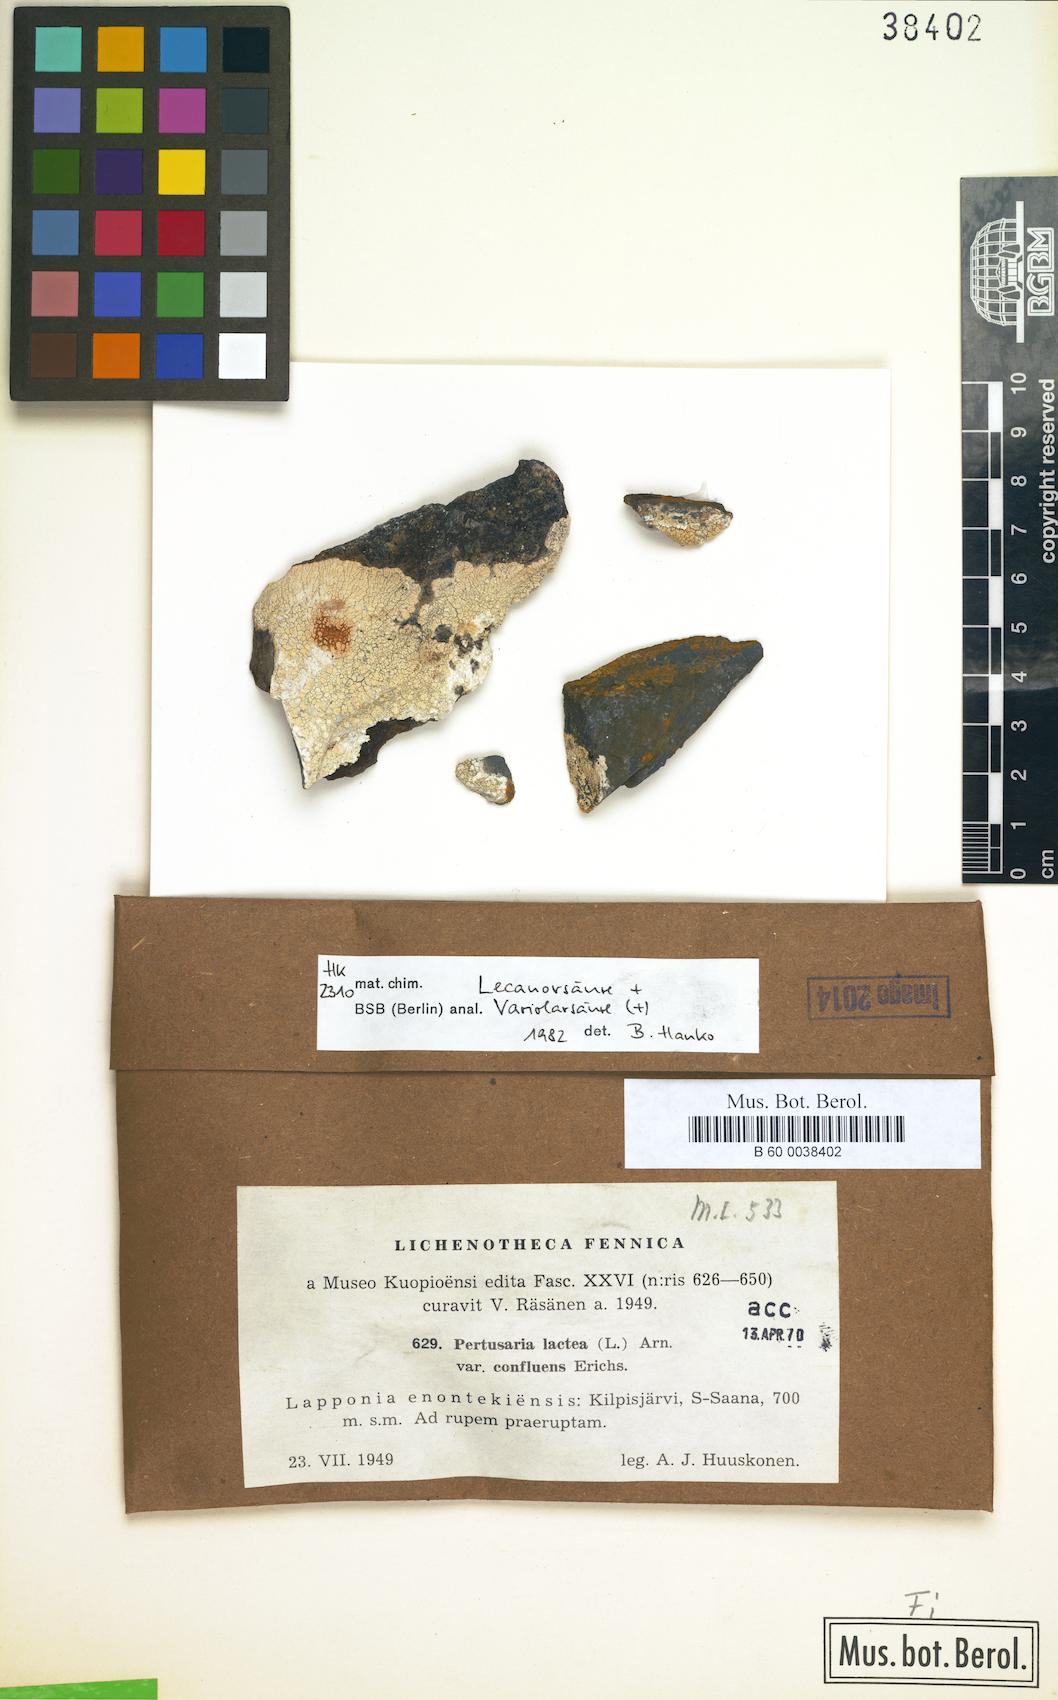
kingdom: Fungi
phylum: Ascomycota
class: Lecanoromycetes
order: Pertusariales
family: Varicellariaceae
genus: Varicellaria
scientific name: Varicellaria lactea
